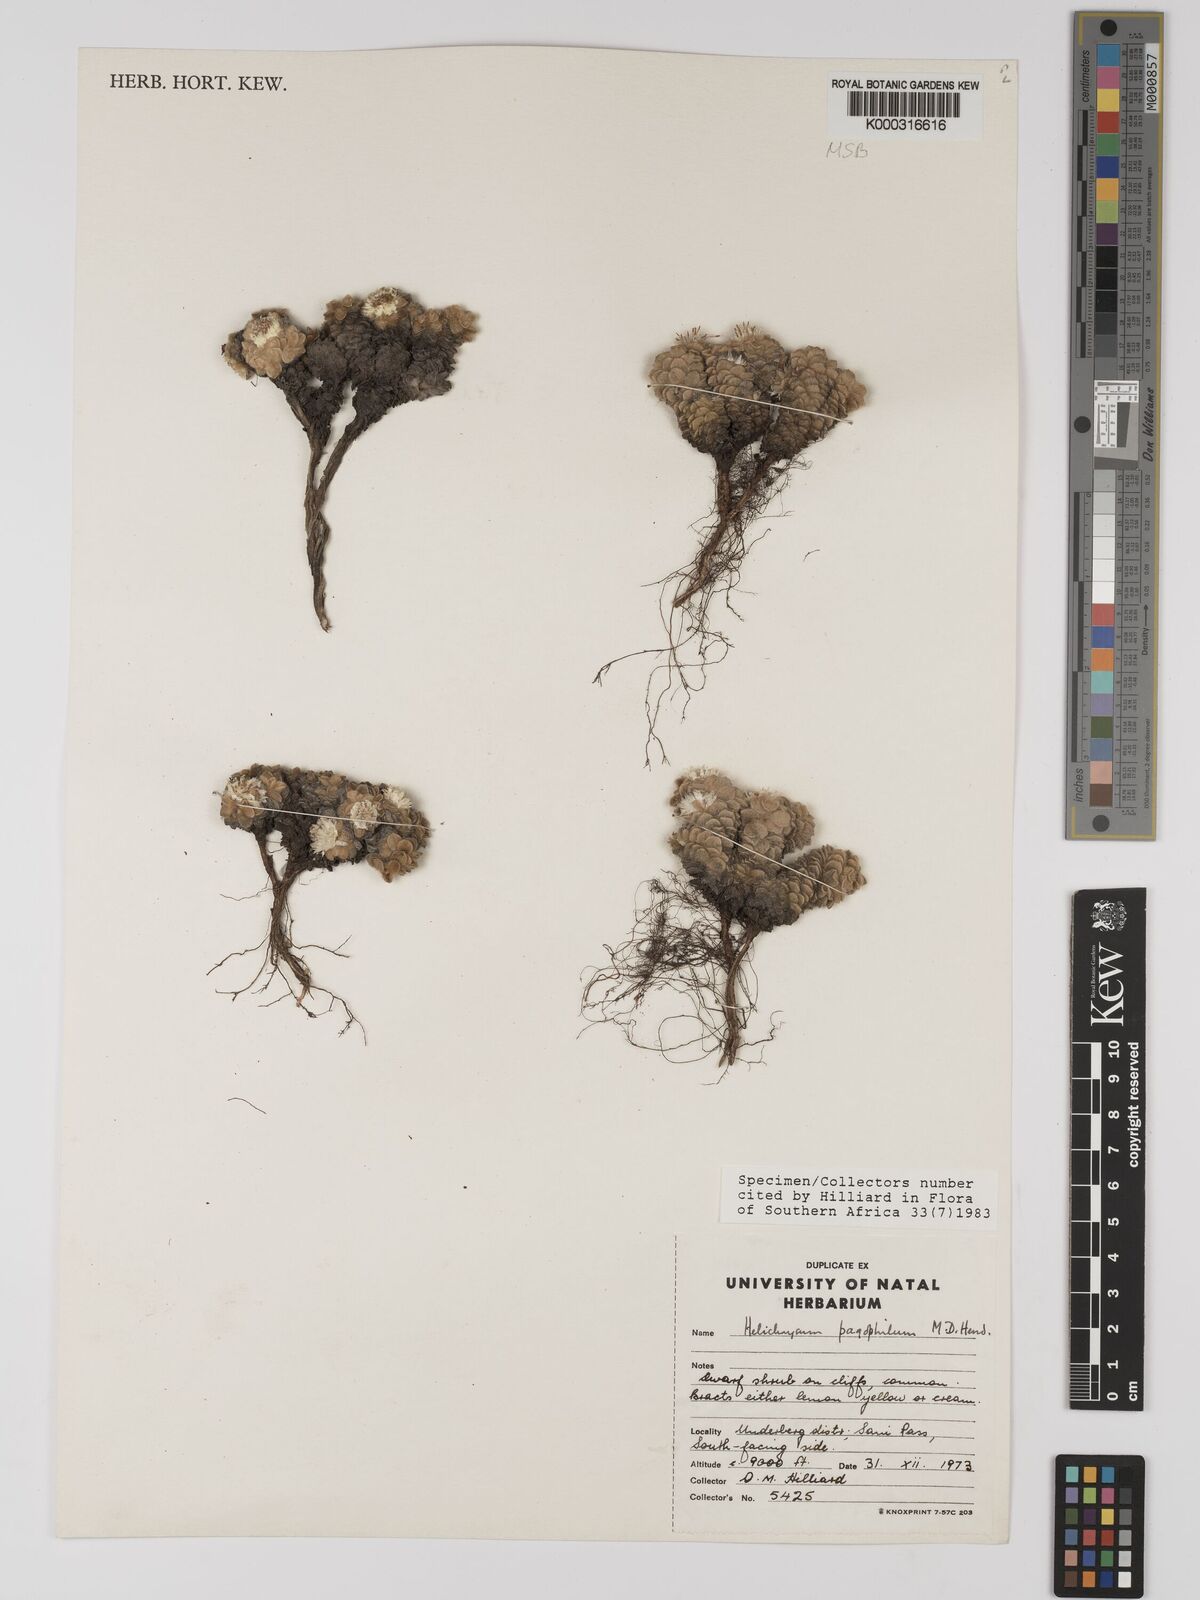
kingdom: Plantae
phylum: Tracheophyta
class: Magnoliopsida
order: Asterales
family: Asteraceae
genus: Helichrysum
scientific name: Helichrysum pagophilum
